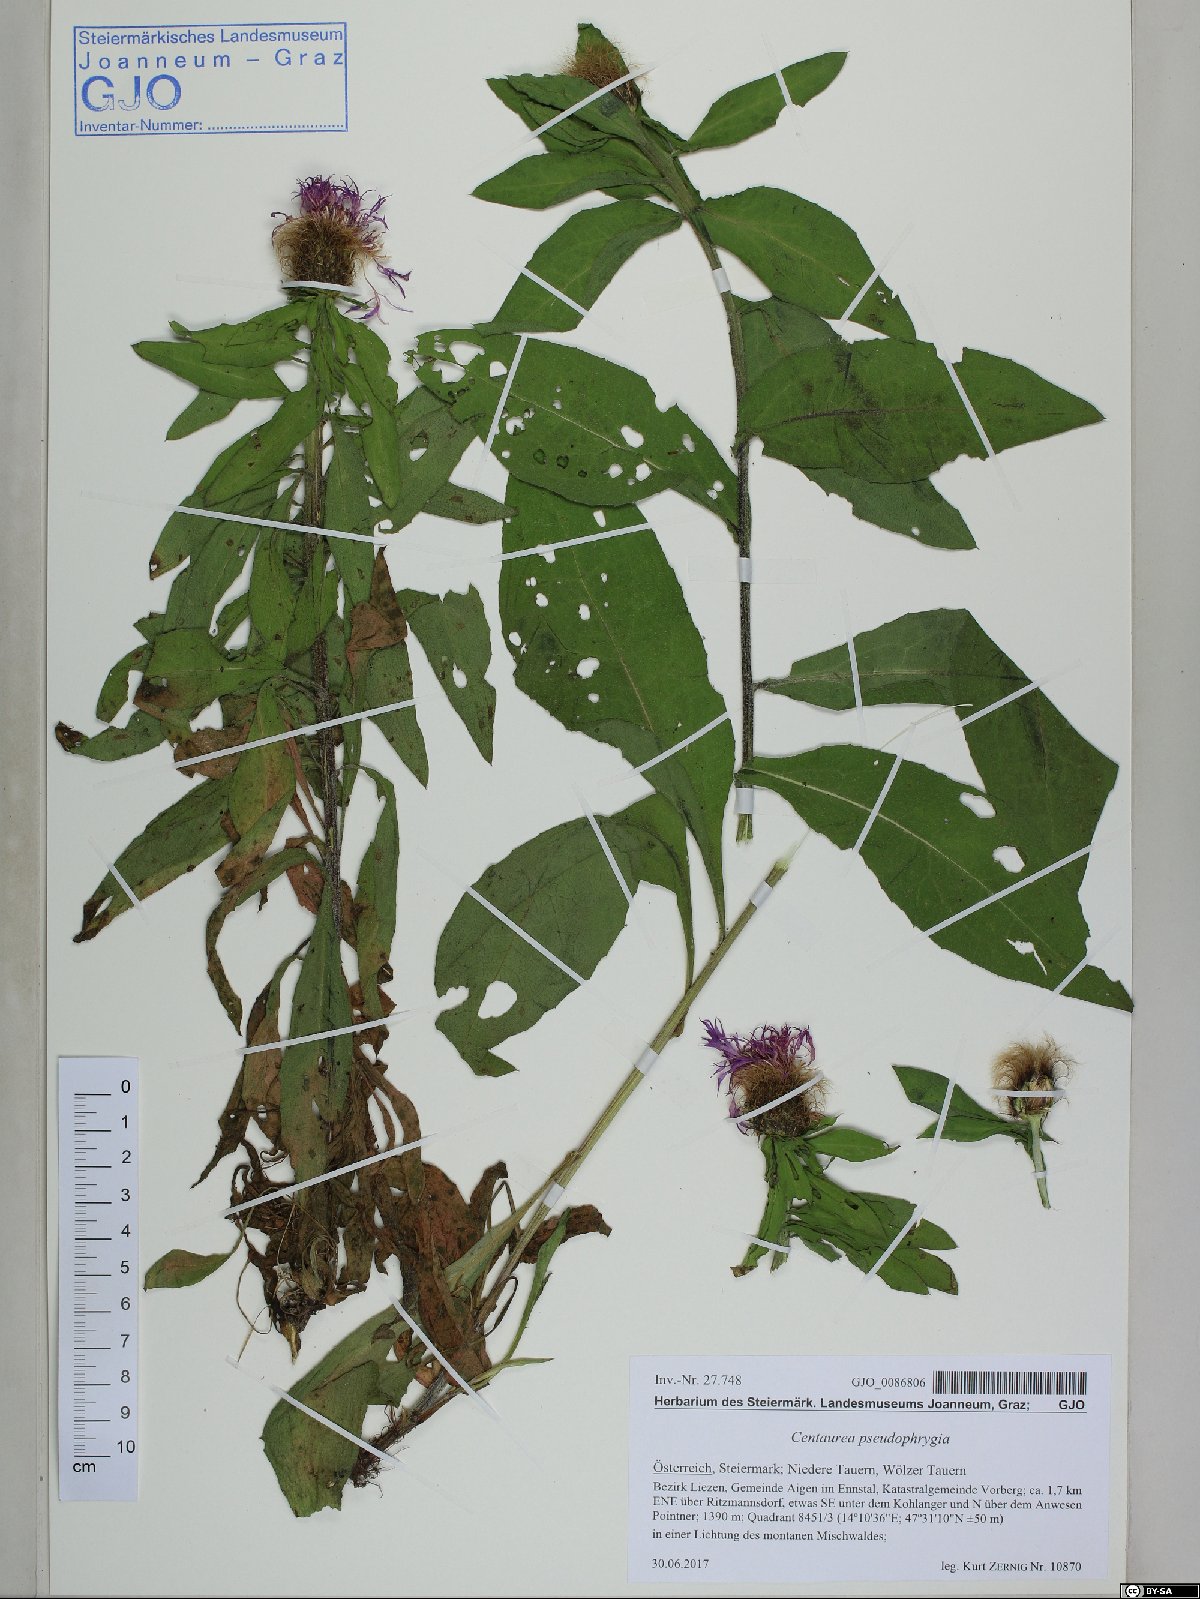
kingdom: Plantae
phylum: Tracheophyta
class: Magnoliopsida
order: Asterales
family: Asteraceae
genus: Centaurea
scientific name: Centaurea pseudophrygia
